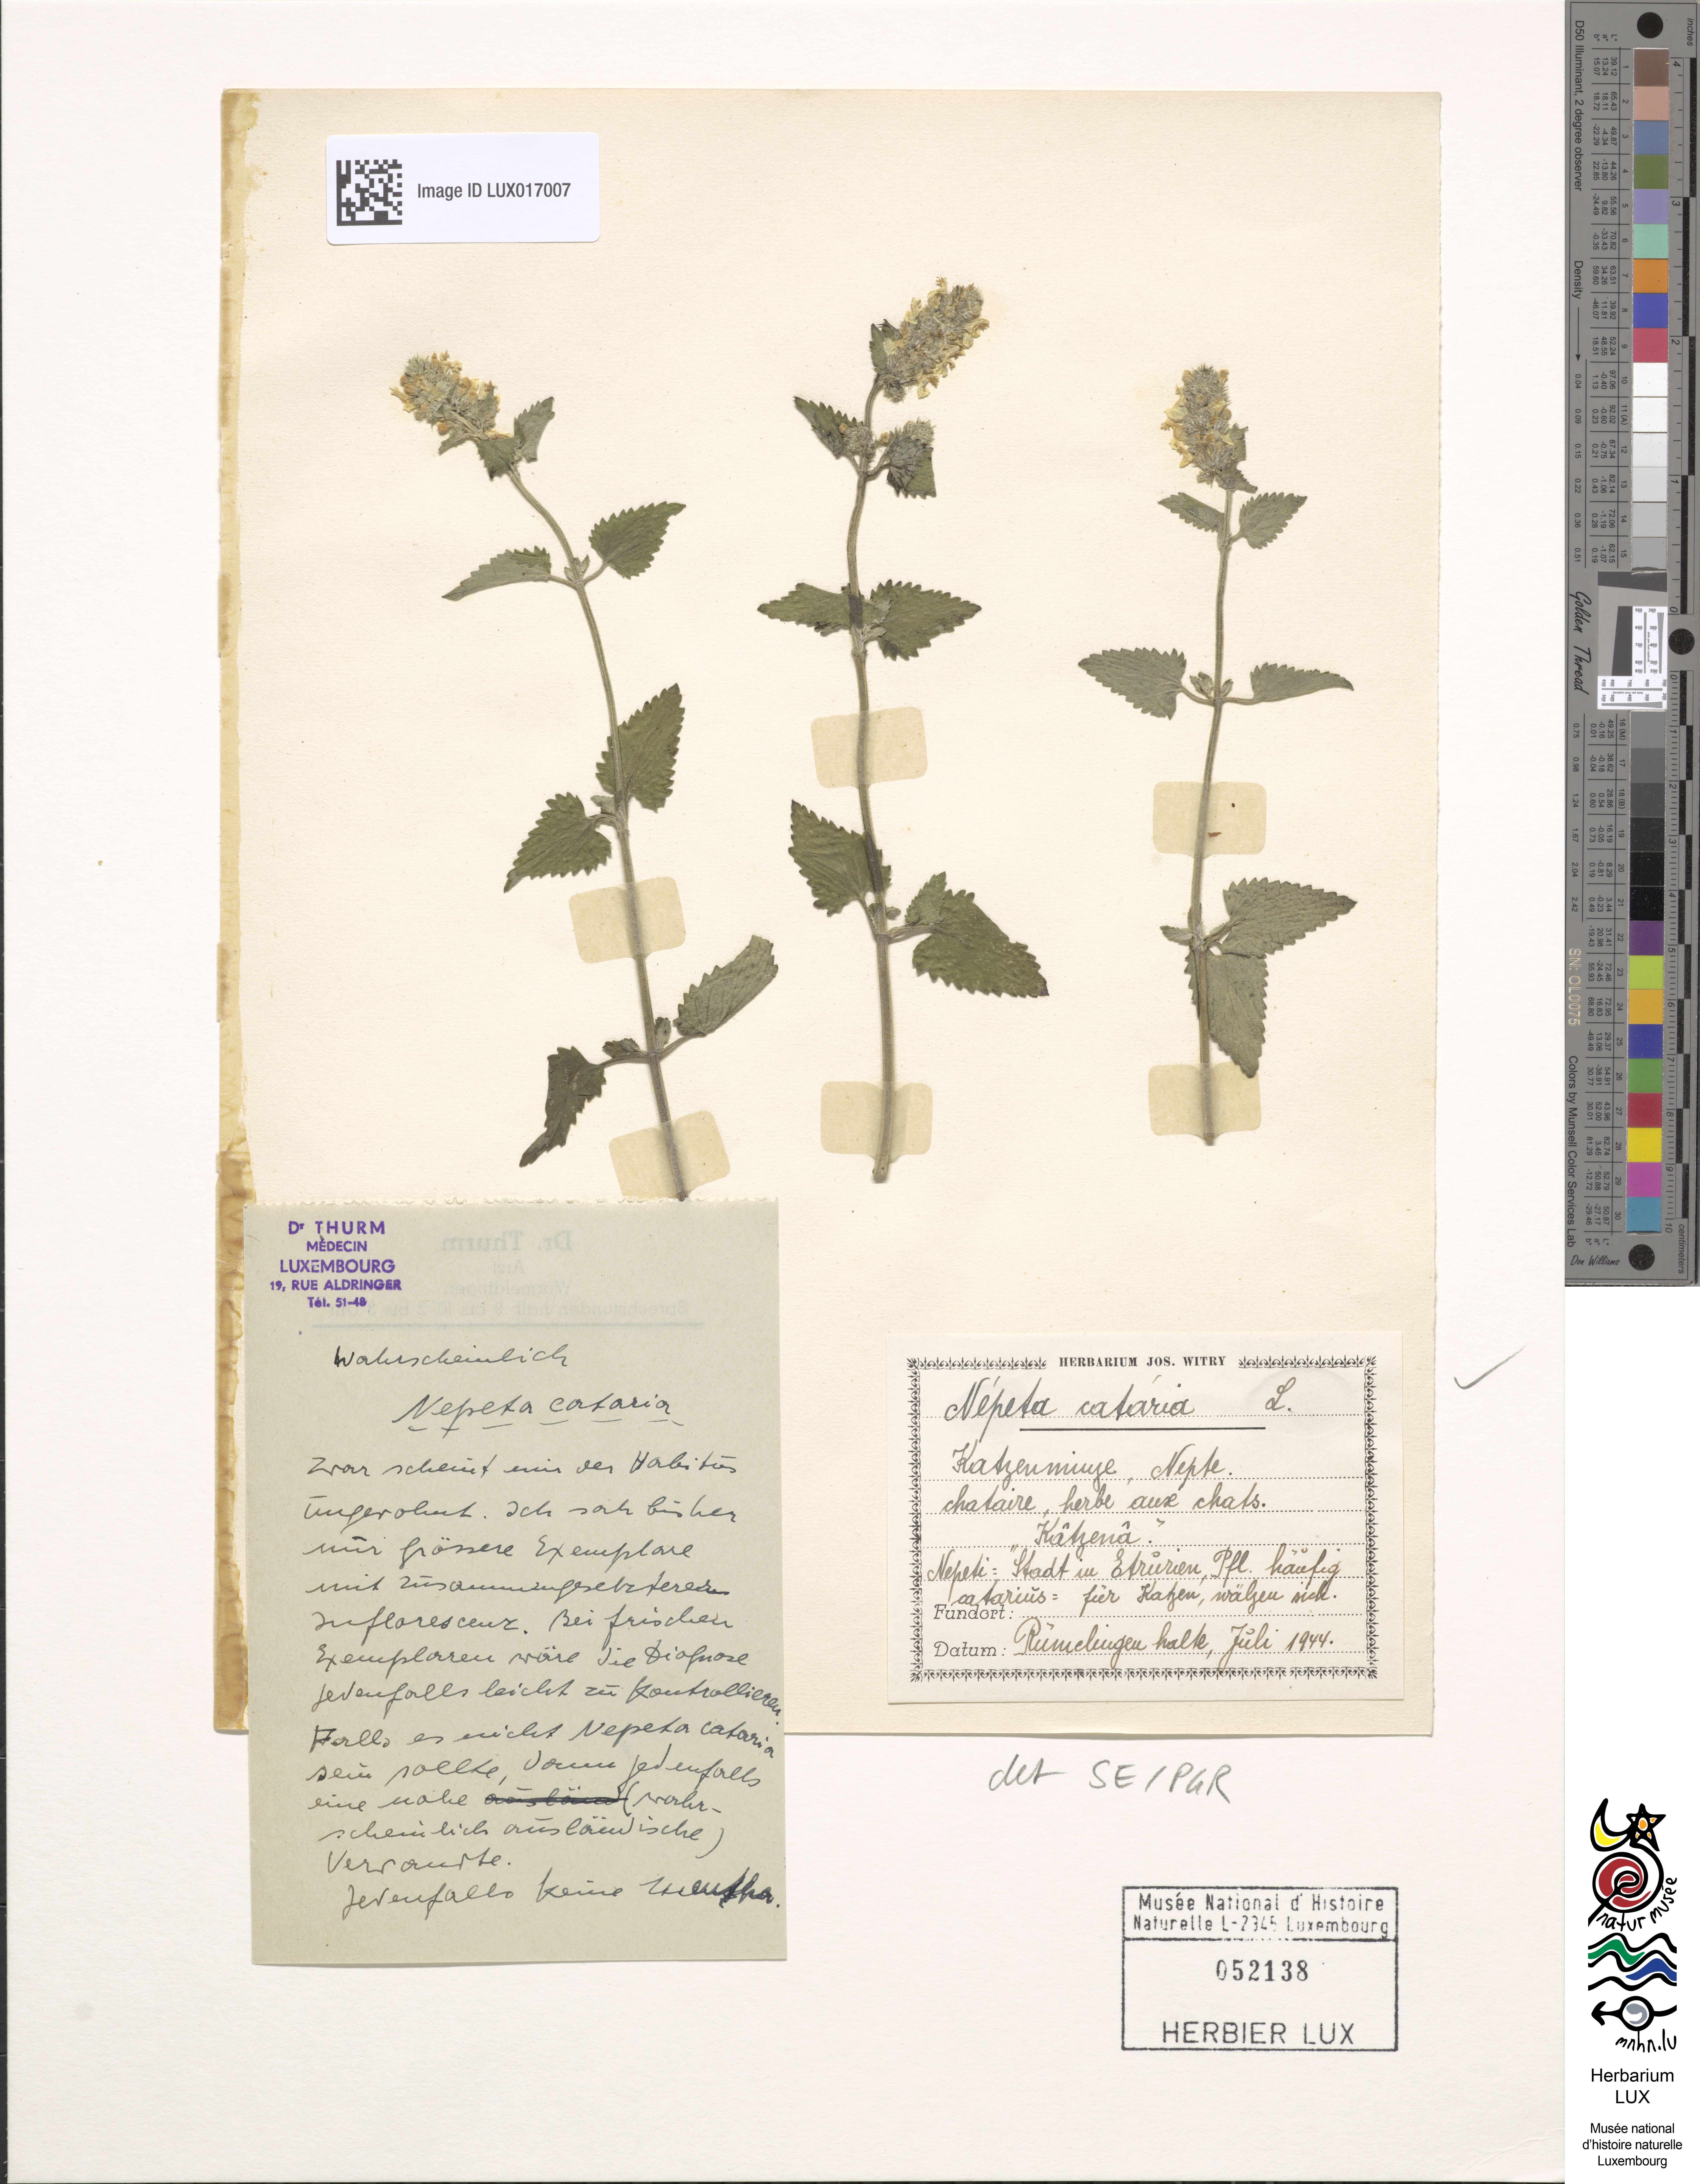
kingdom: Plantae
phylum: Tracheophyta
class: Magnoliopsida
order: Lamiales
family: Lamiaceae
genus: Nepeta
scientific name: Nepeta cataria
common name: Catnip
